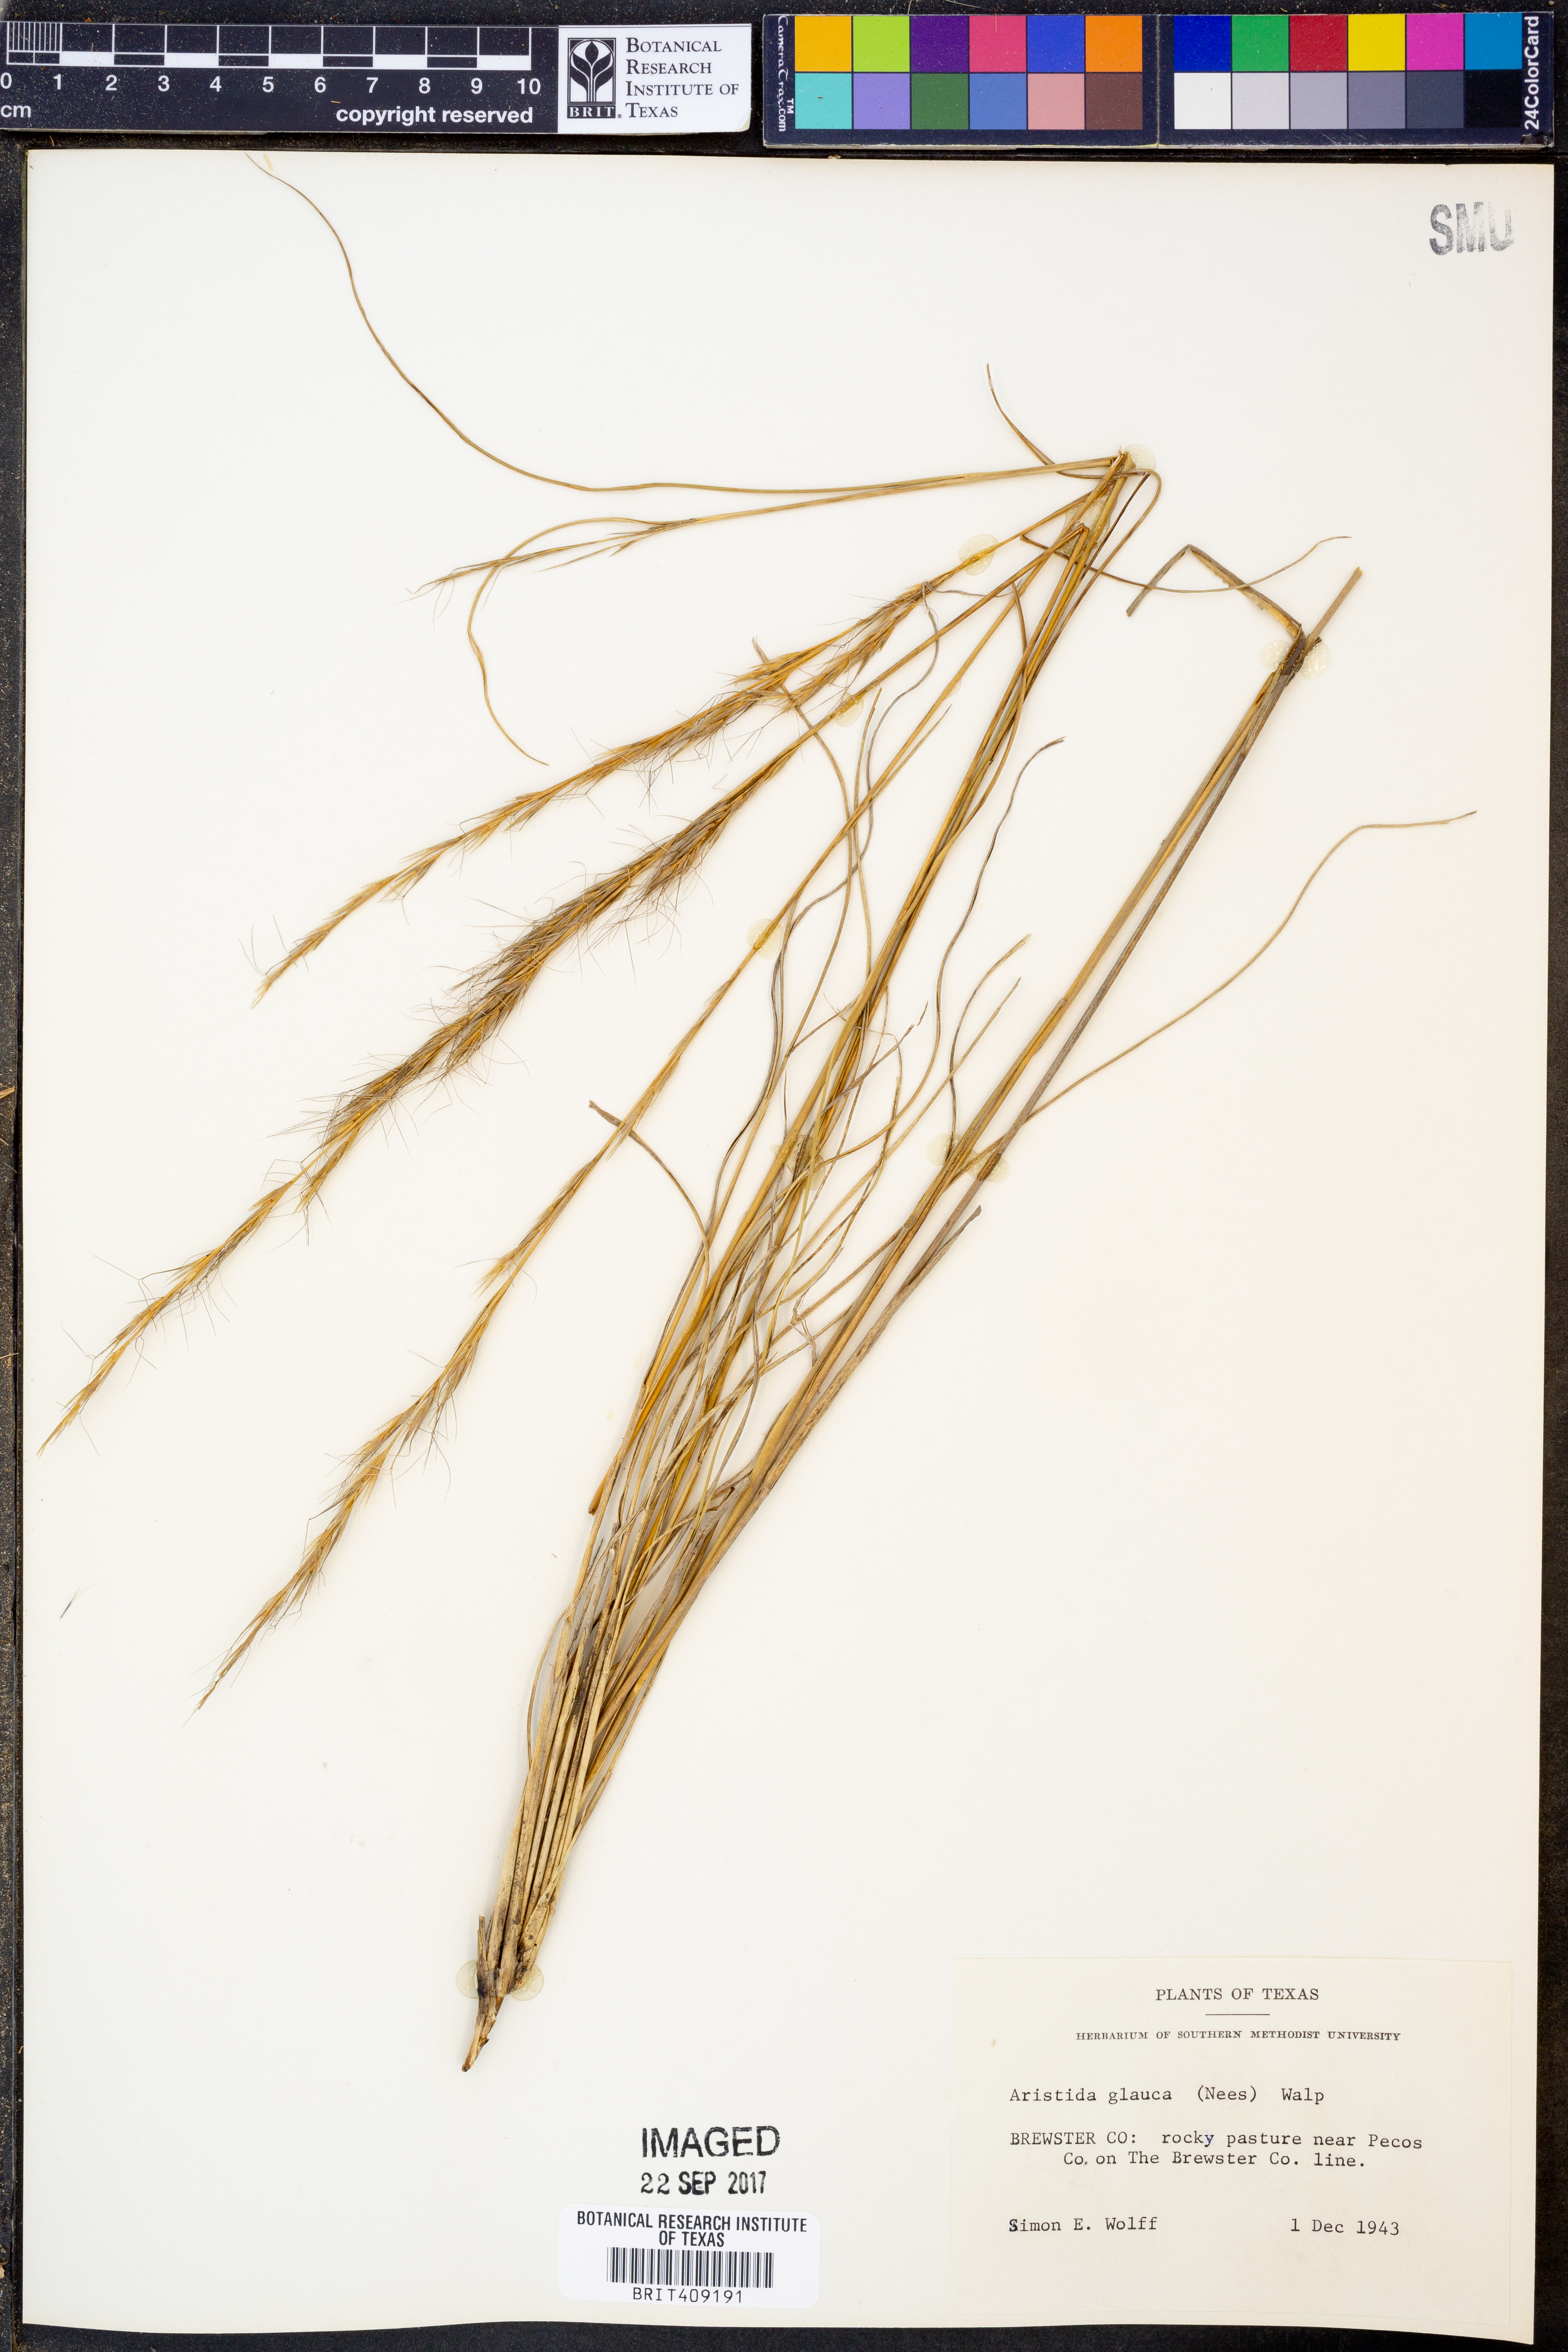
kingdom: Plantae
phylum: Tracheophyta
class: Liliopsida
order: Poales
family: Poaceae
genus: Aristida
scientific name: Aristida glauca
